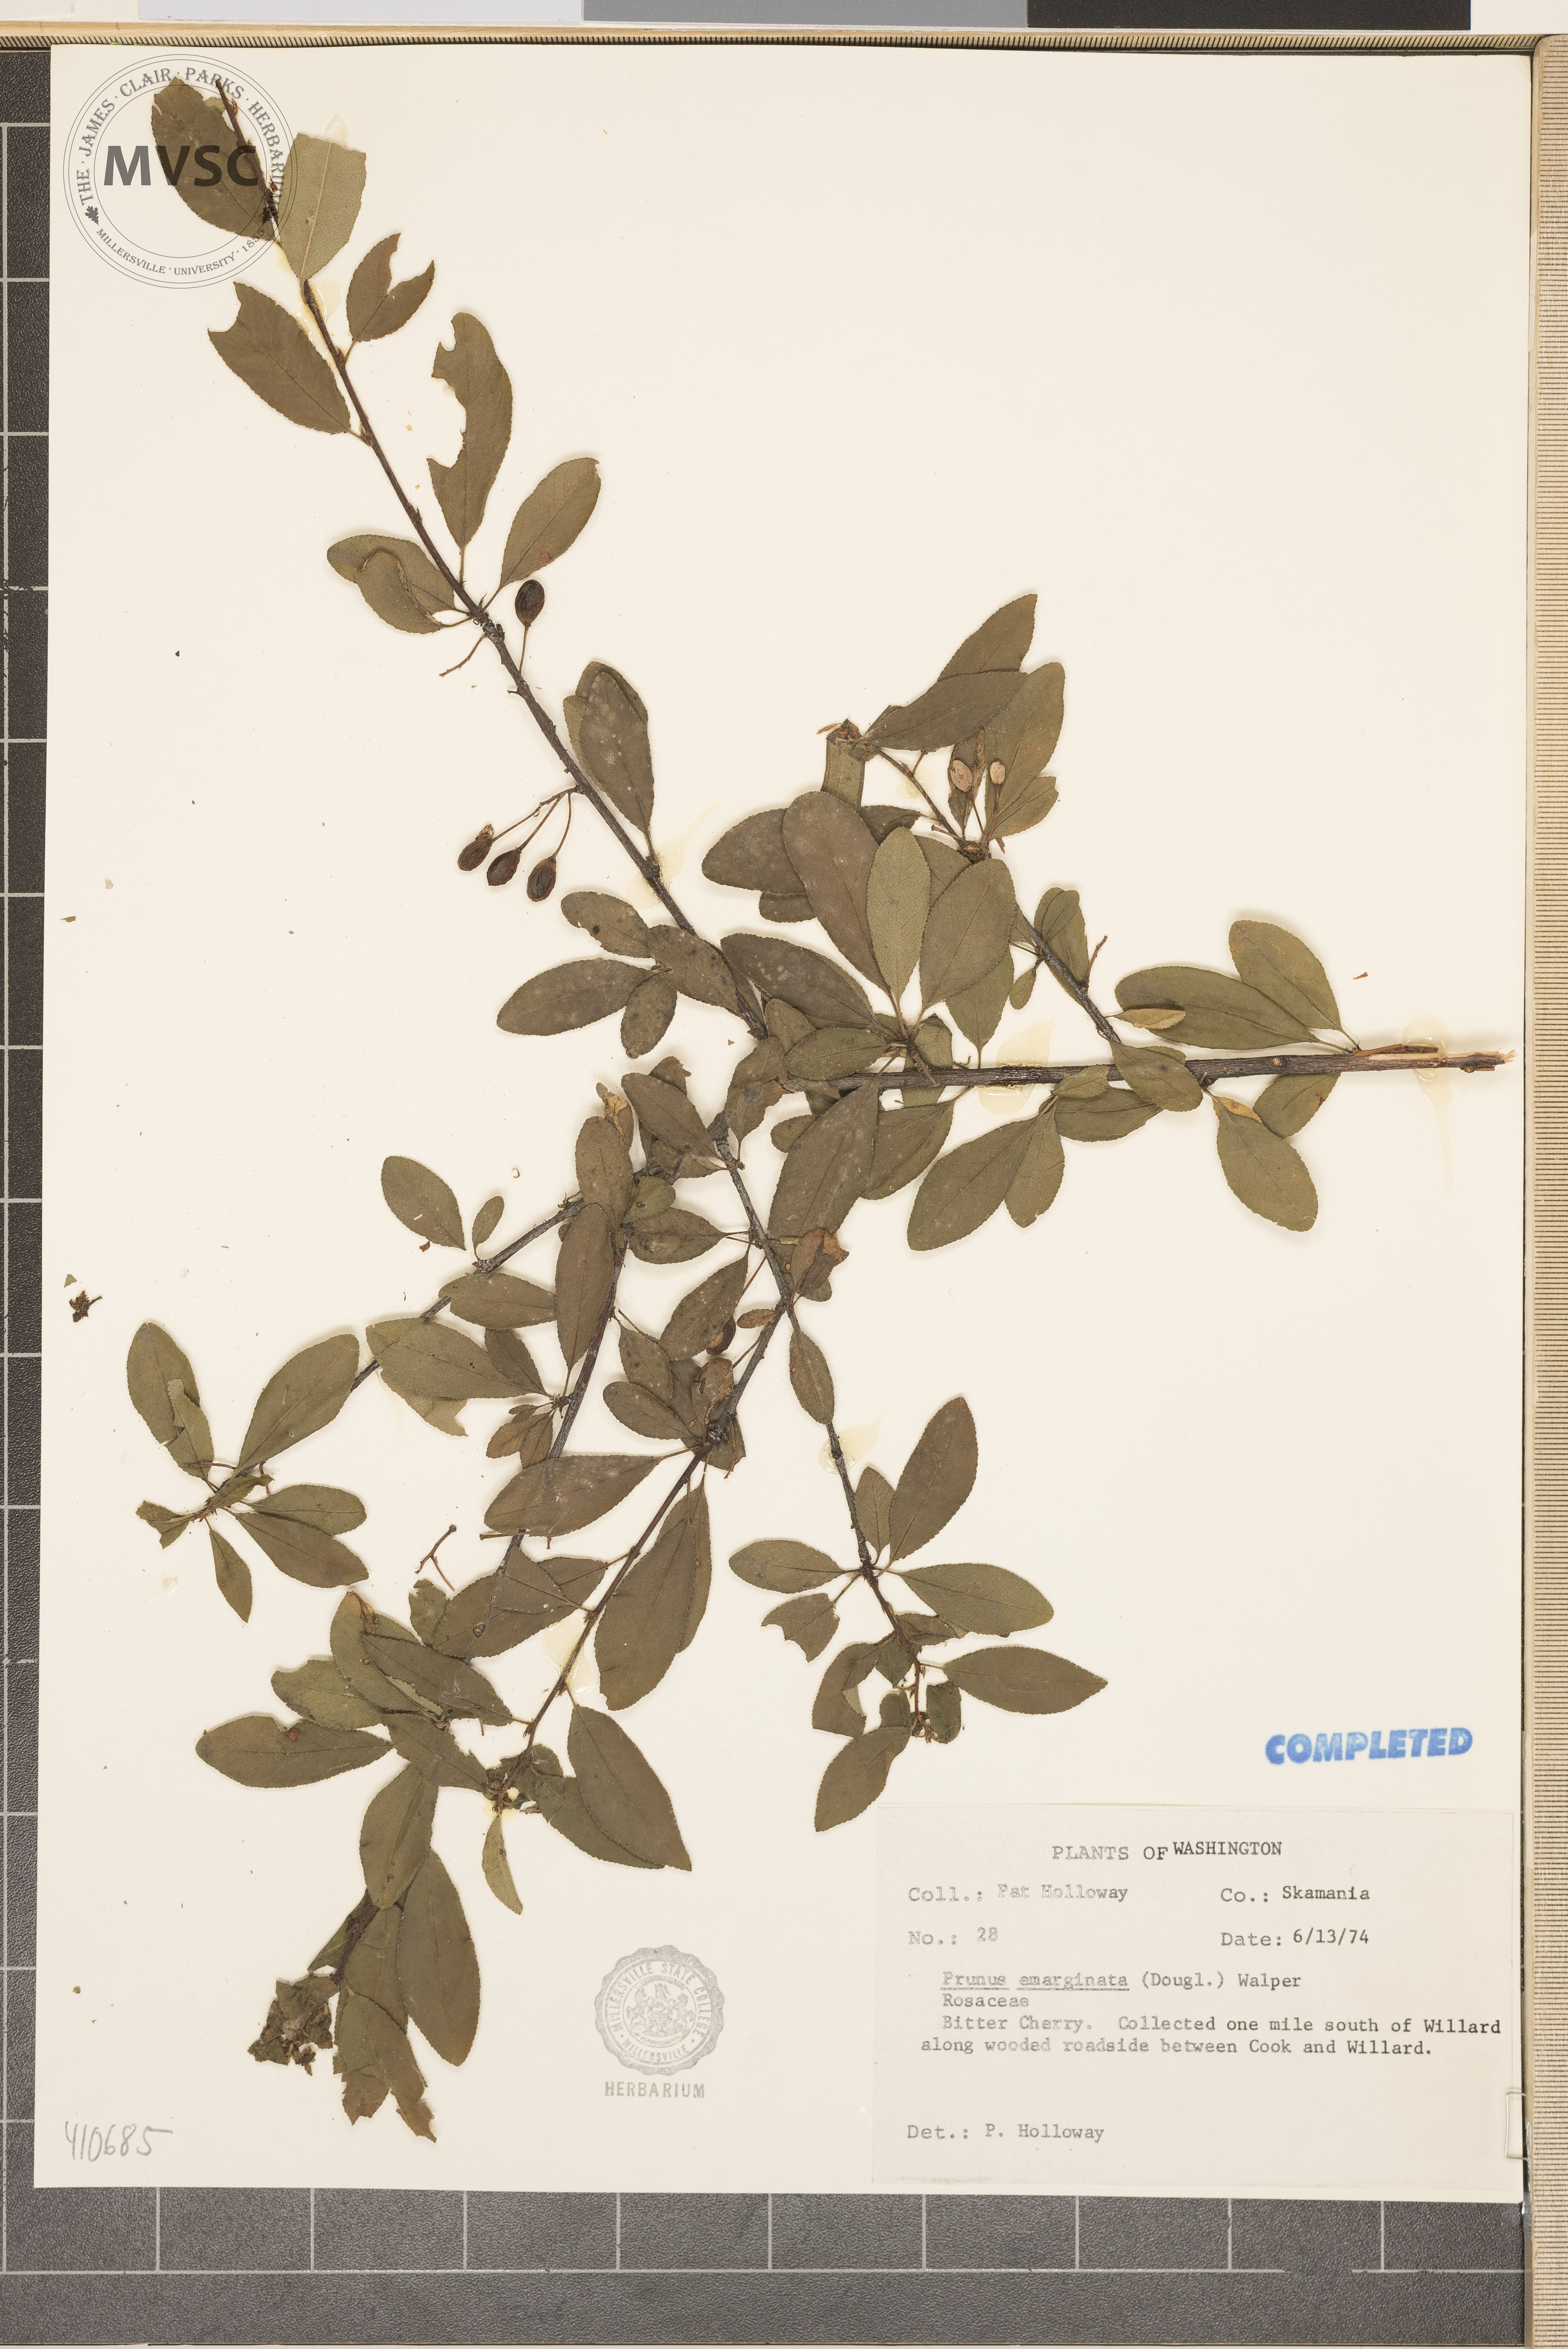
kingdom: Plantae
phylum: Tracheophyta
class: Magnoliopsida
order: Rosales
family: Rosaceae
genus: Prunus
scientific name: Prunus emarginata
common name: Bitter cherry
